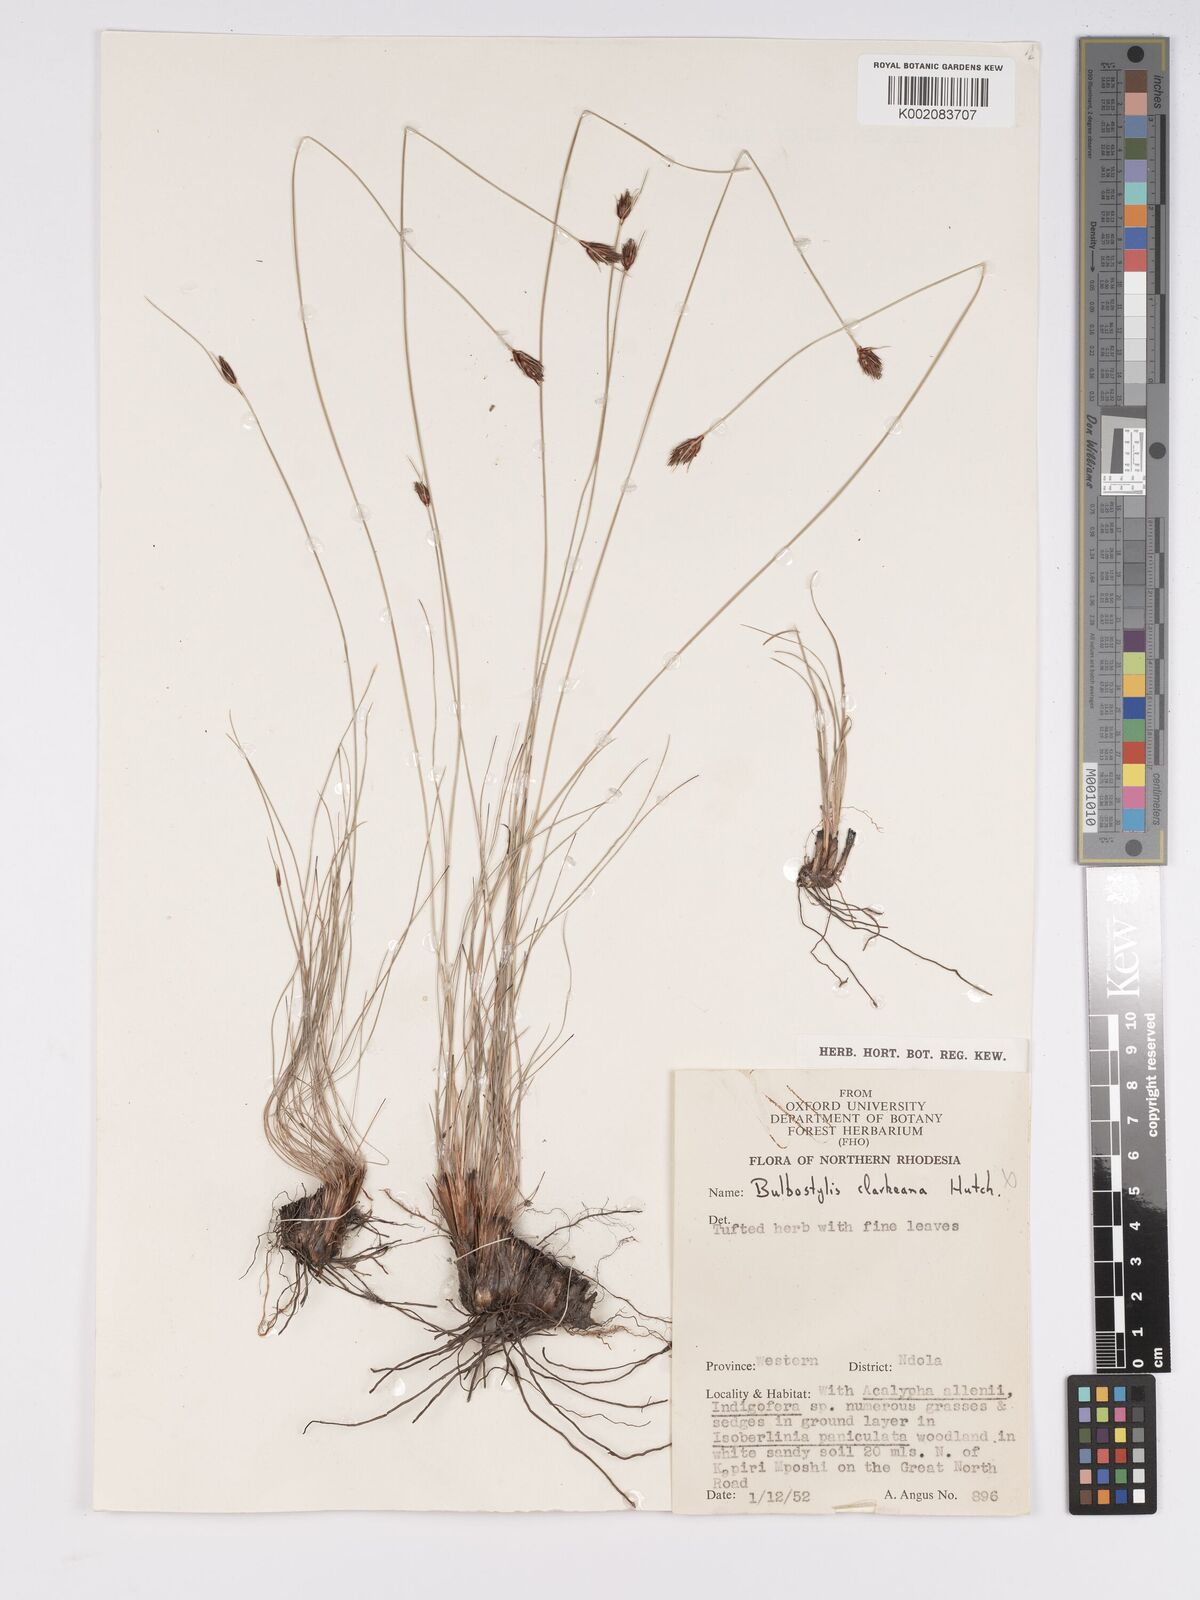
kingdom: Plantae
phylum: Tracheophyta
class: Liliopsida
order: Poales
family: Cyperaceae
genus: Bulbostylis
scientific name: Bulbostylis oritrephes
